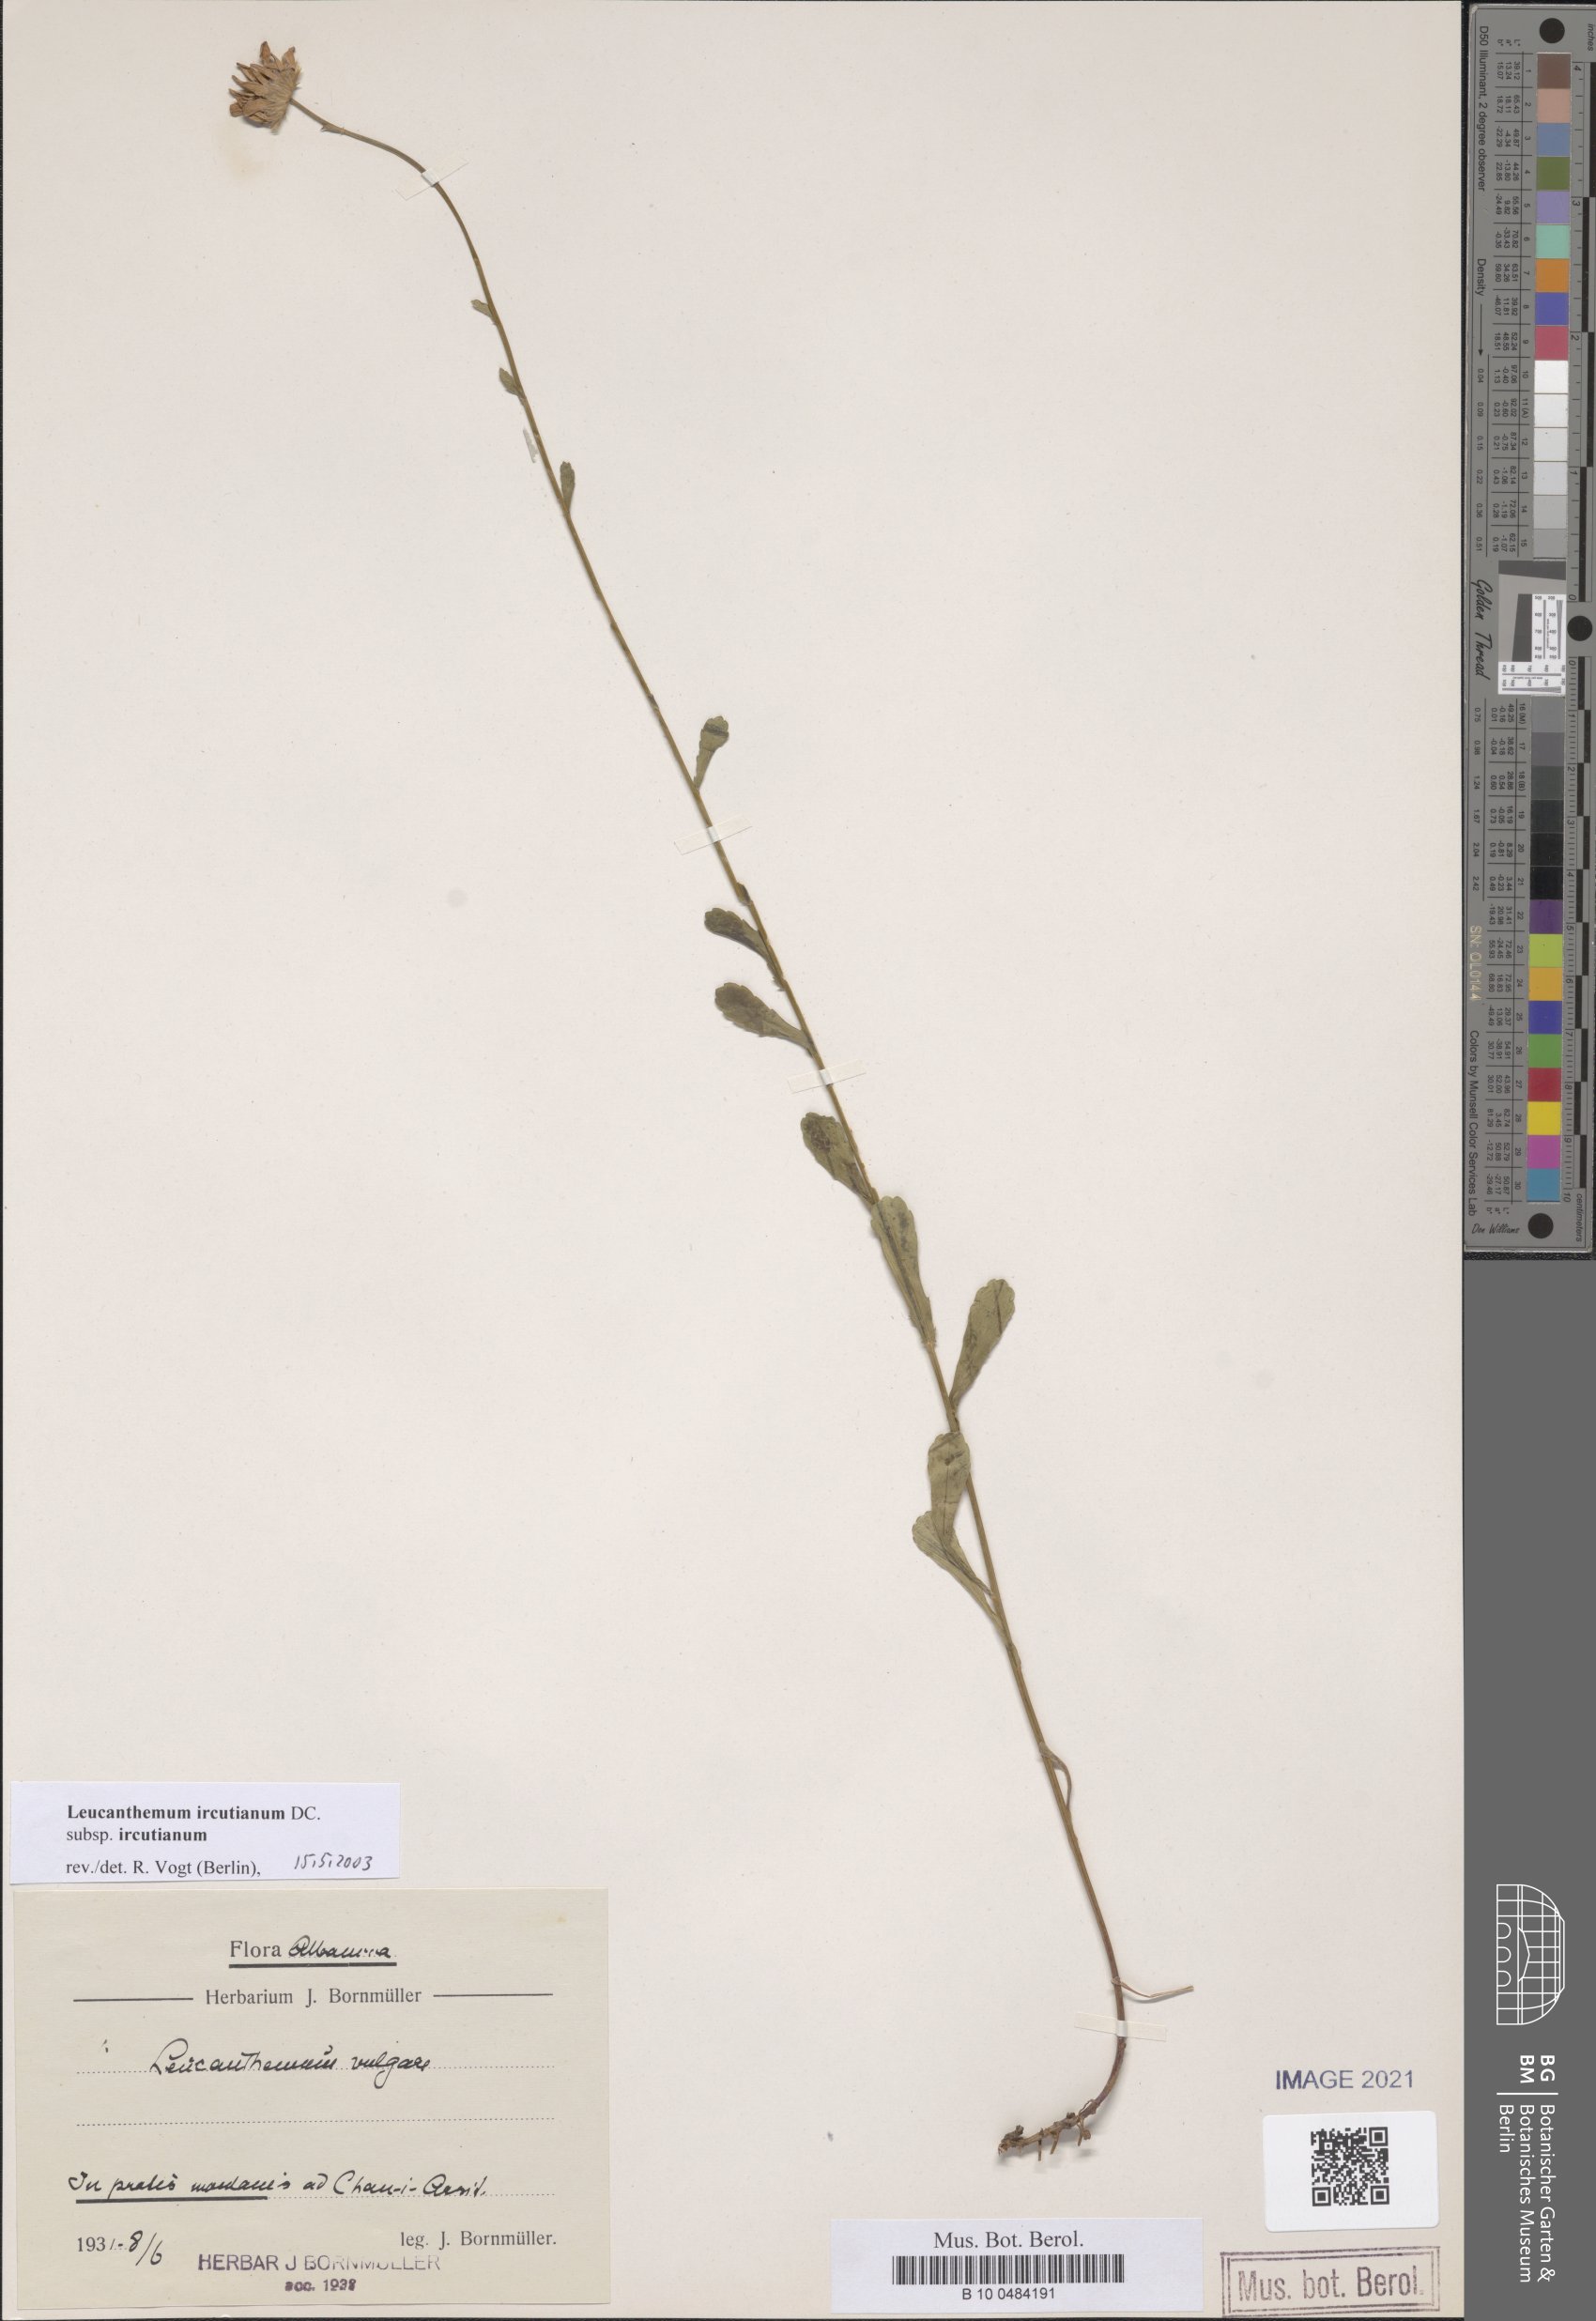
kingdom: Plantae
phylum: Tracheophyta
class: Magnoliopsida
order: Asterales
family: Asteraceae
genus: Leucanthemum
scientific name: Leucanthemum ircutianum
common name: Daisy
